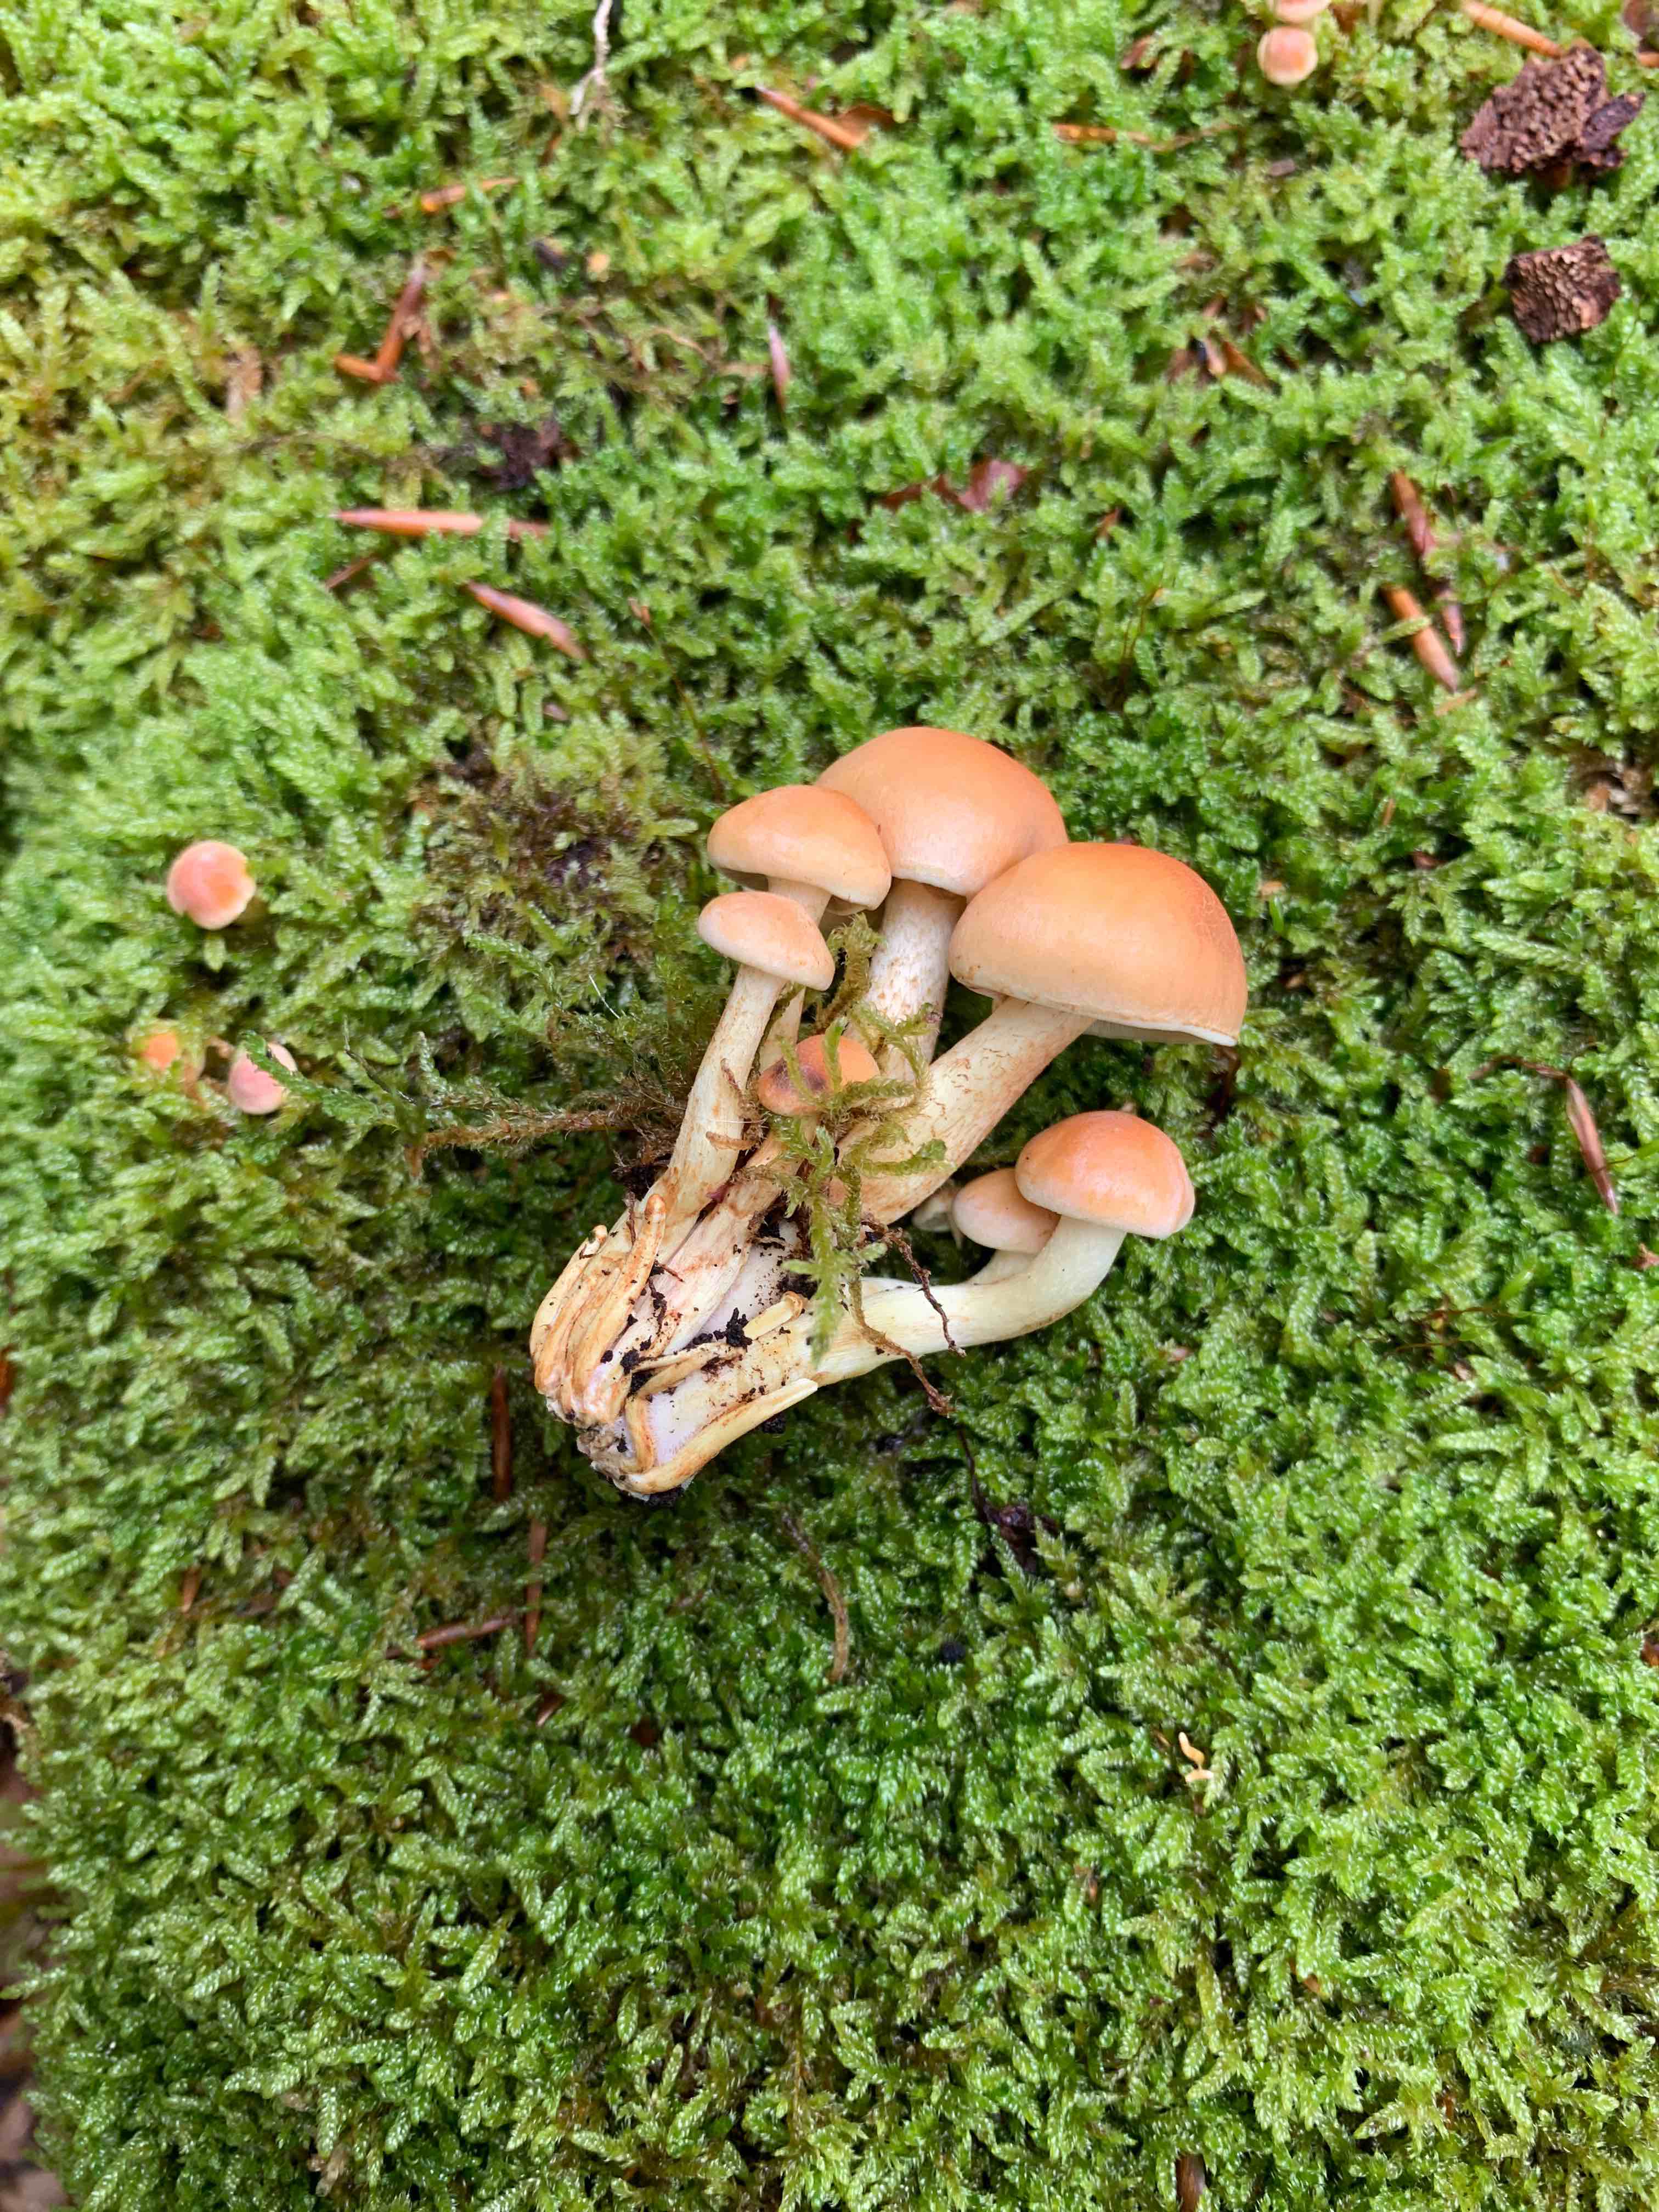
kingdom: Fungi
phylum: Basidiomycota
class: Agaricomycetes
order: Agaricales
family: Strophariaceae
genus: Hypholoma
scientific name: Hypholoma fasciculare
